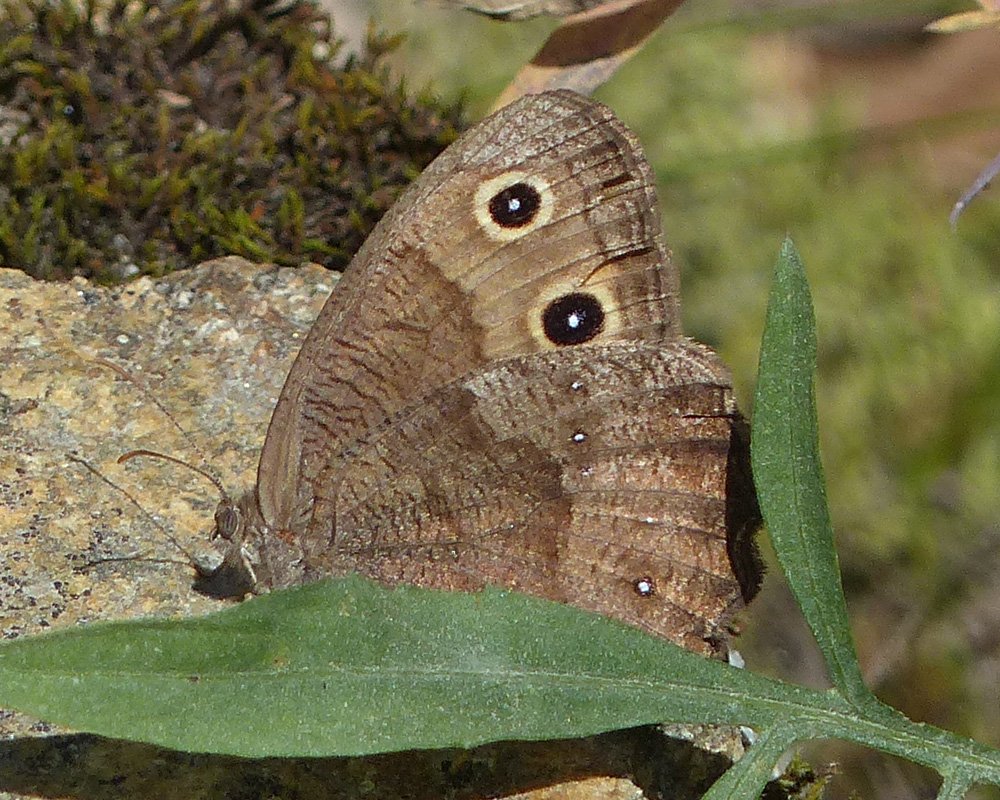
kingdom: Animalia
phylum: Arthropoda
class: Insecta
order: Lepidoptera
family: Nymphalidae
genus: Cercyonis
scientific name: Cercyonis pegala
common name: Common Wood-Nymph
